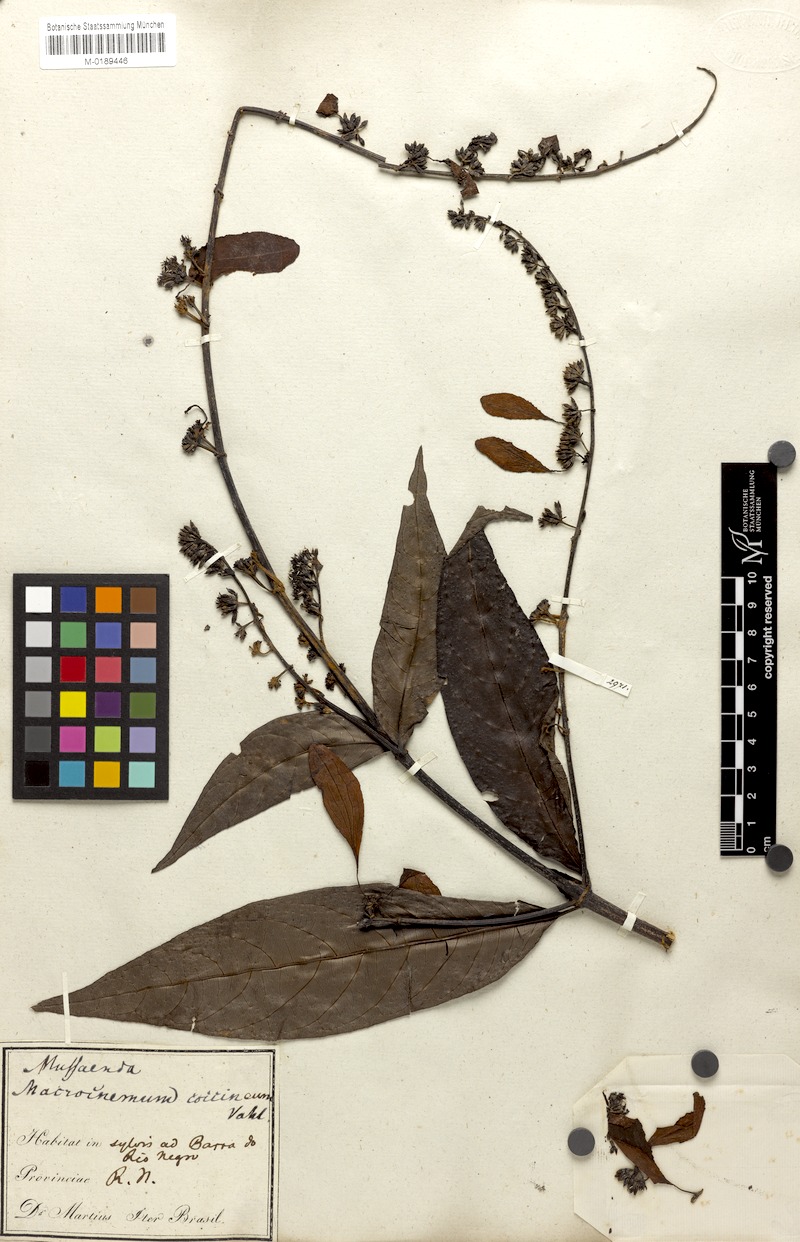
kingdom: Plantae
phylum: Tracheophyta
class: Magnoliopsida
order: Gentianales
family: Rubiaceae
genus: Warszewiczia
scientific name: Warszewiczia coccinea
